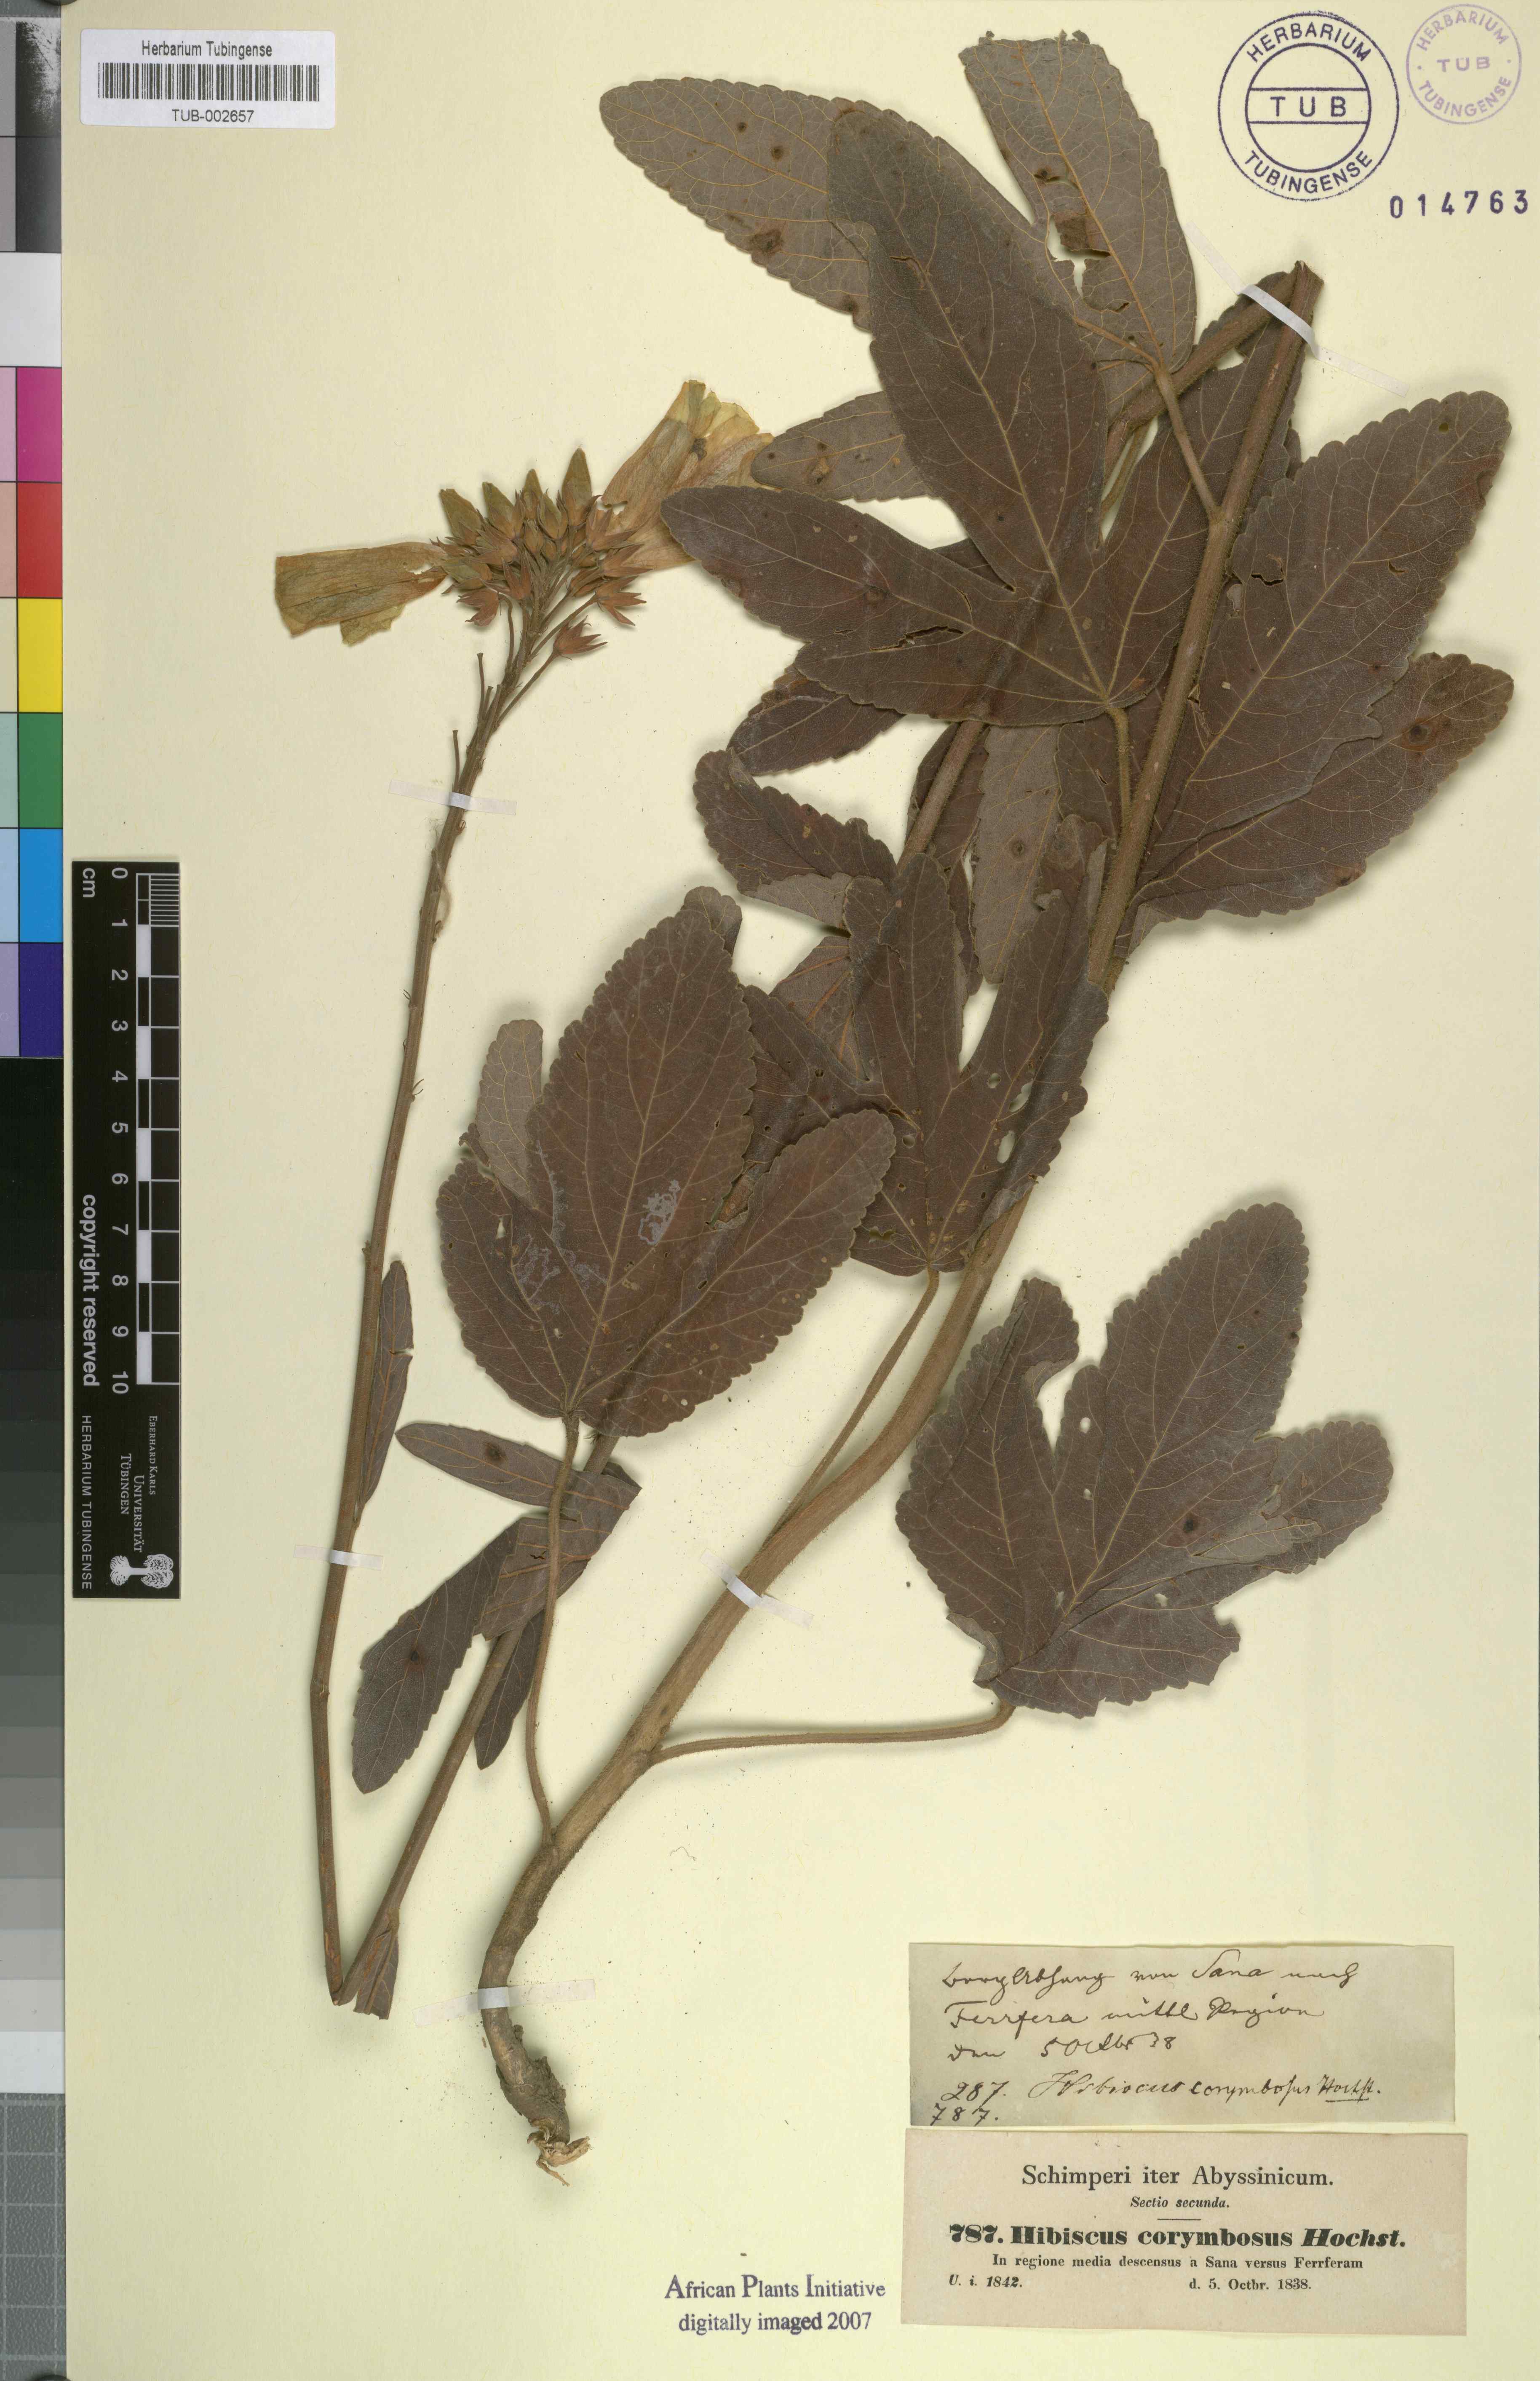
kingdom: Plantae
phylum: Tracheophyta
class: Magnoliopsida
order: Malvales
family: Malvaceae
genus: Hibiscus
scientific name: Hibiscus corymbosus
